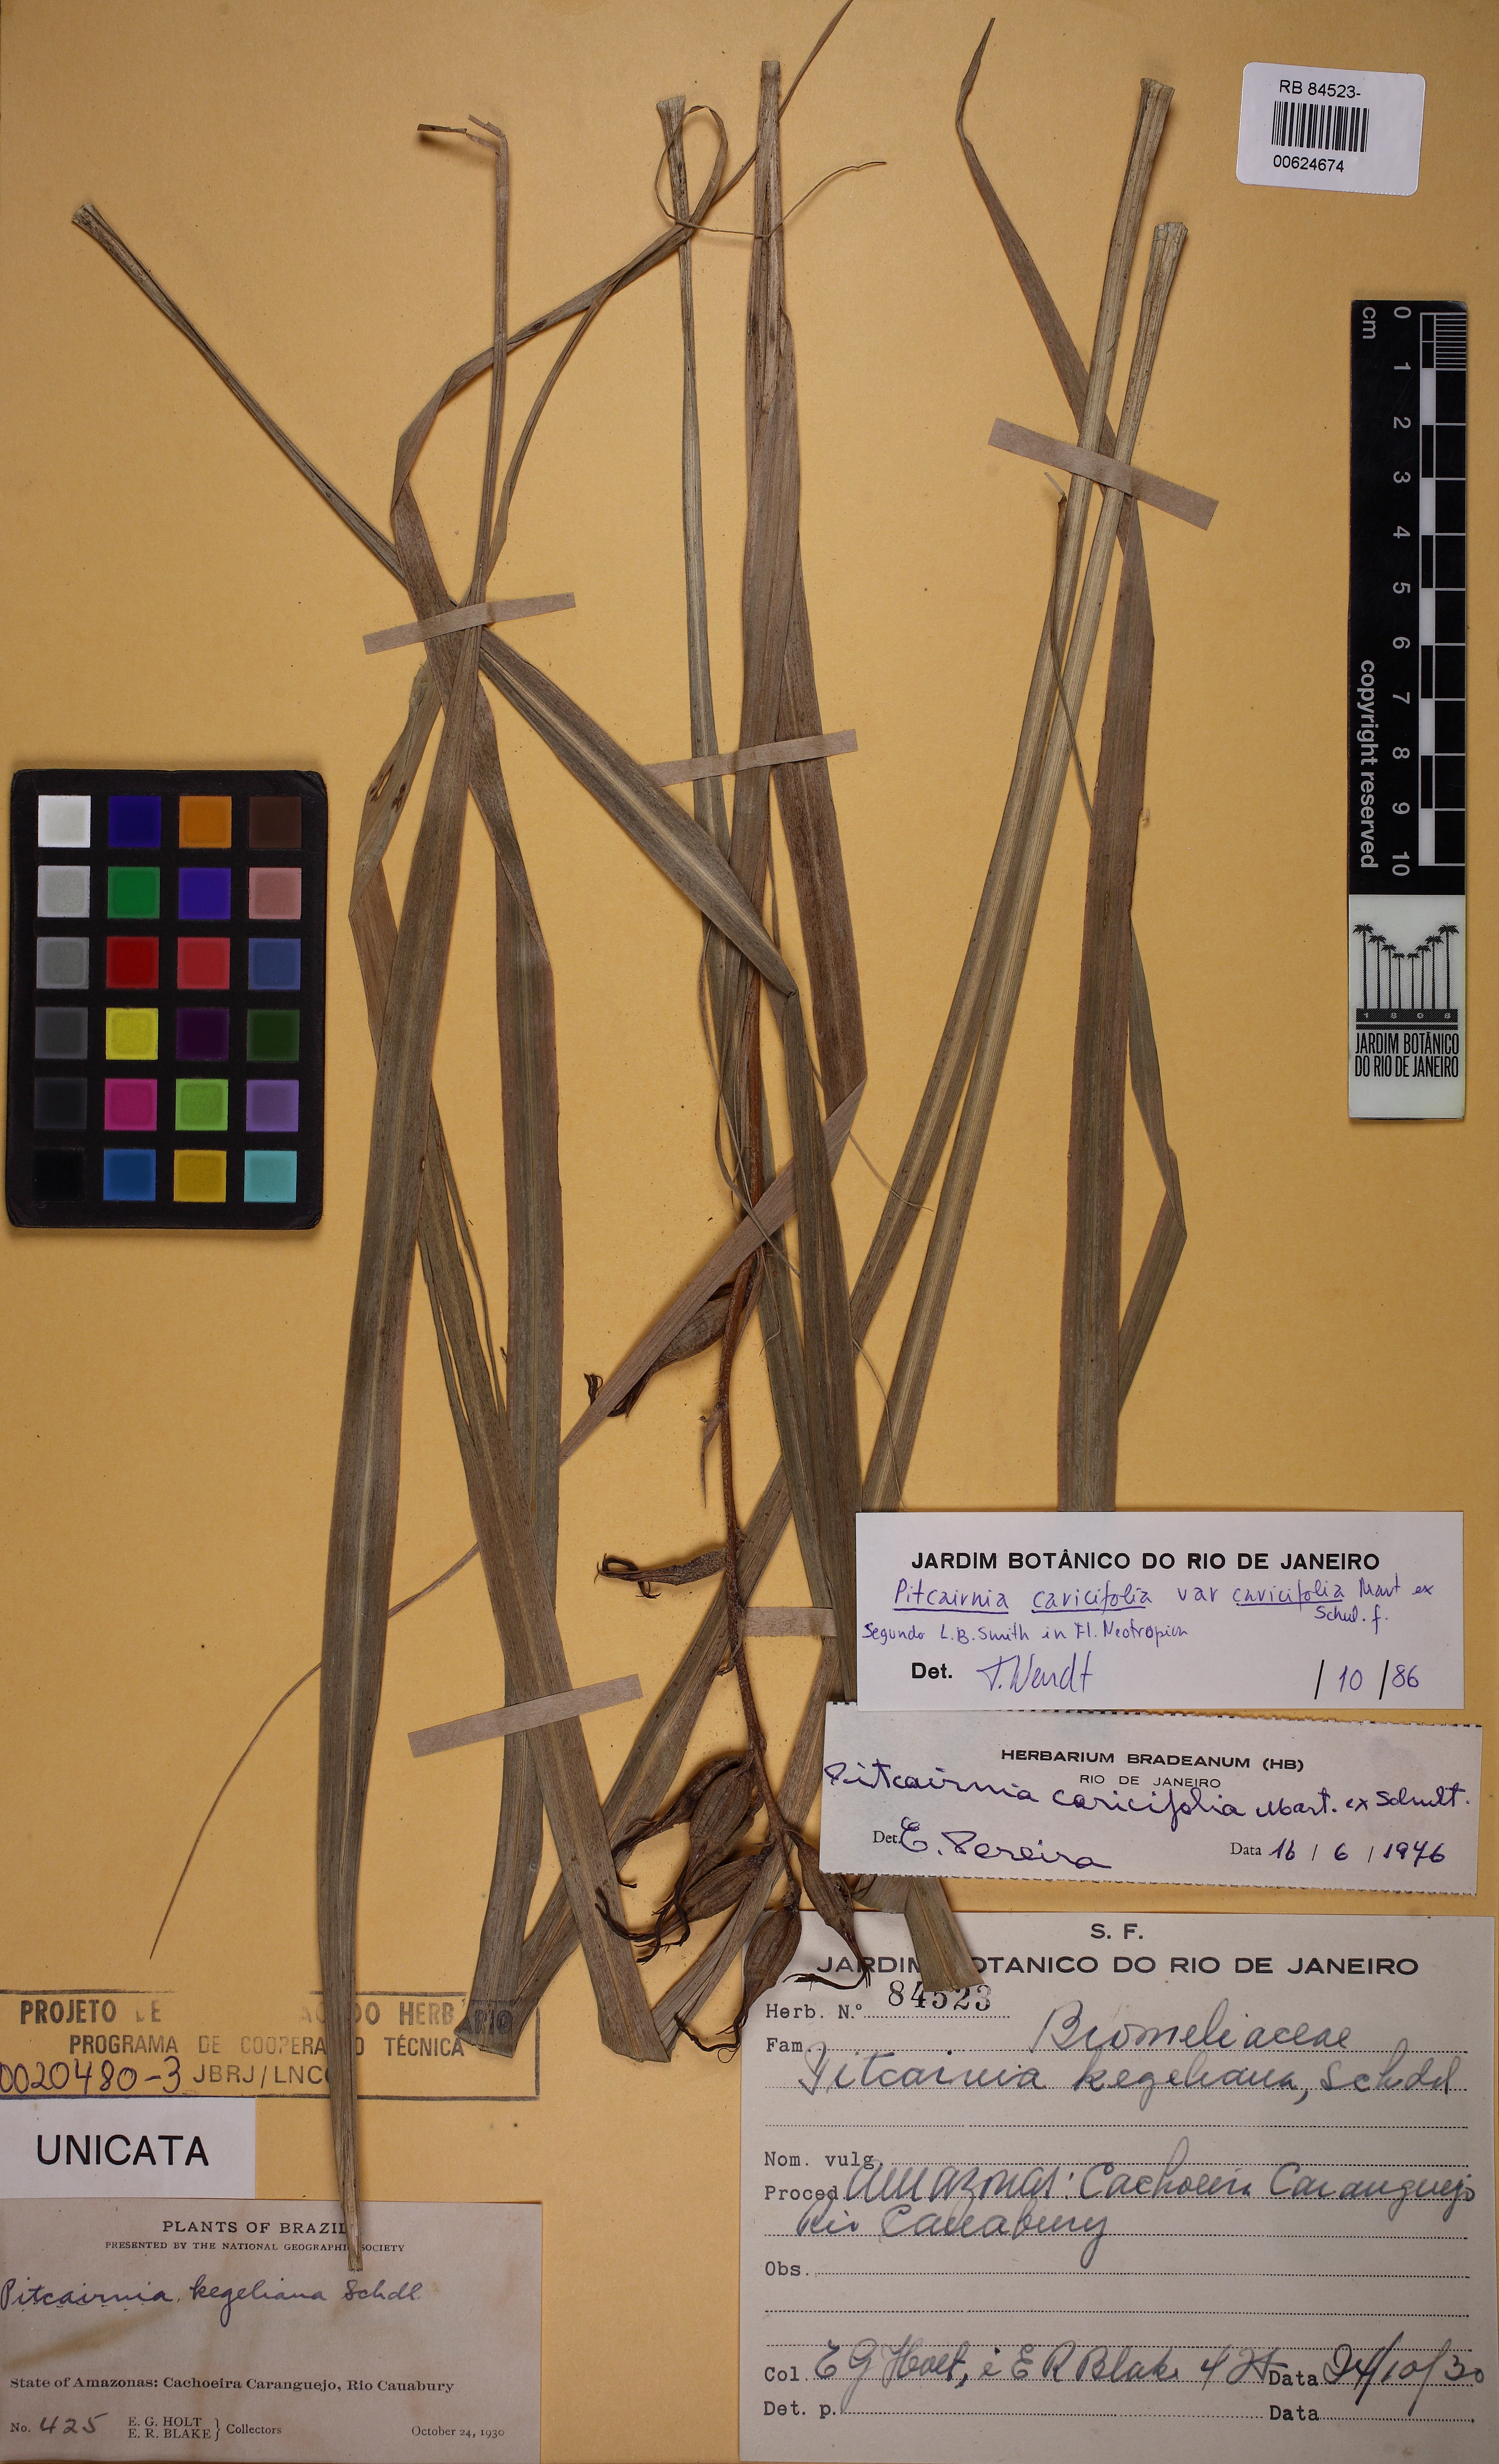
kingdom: Plantae
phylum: Tracheophyta
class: Liliopsida
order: Poales
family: Bromeliaceae
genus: Pitcairnia
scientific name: Pitcairnia caricifolia
